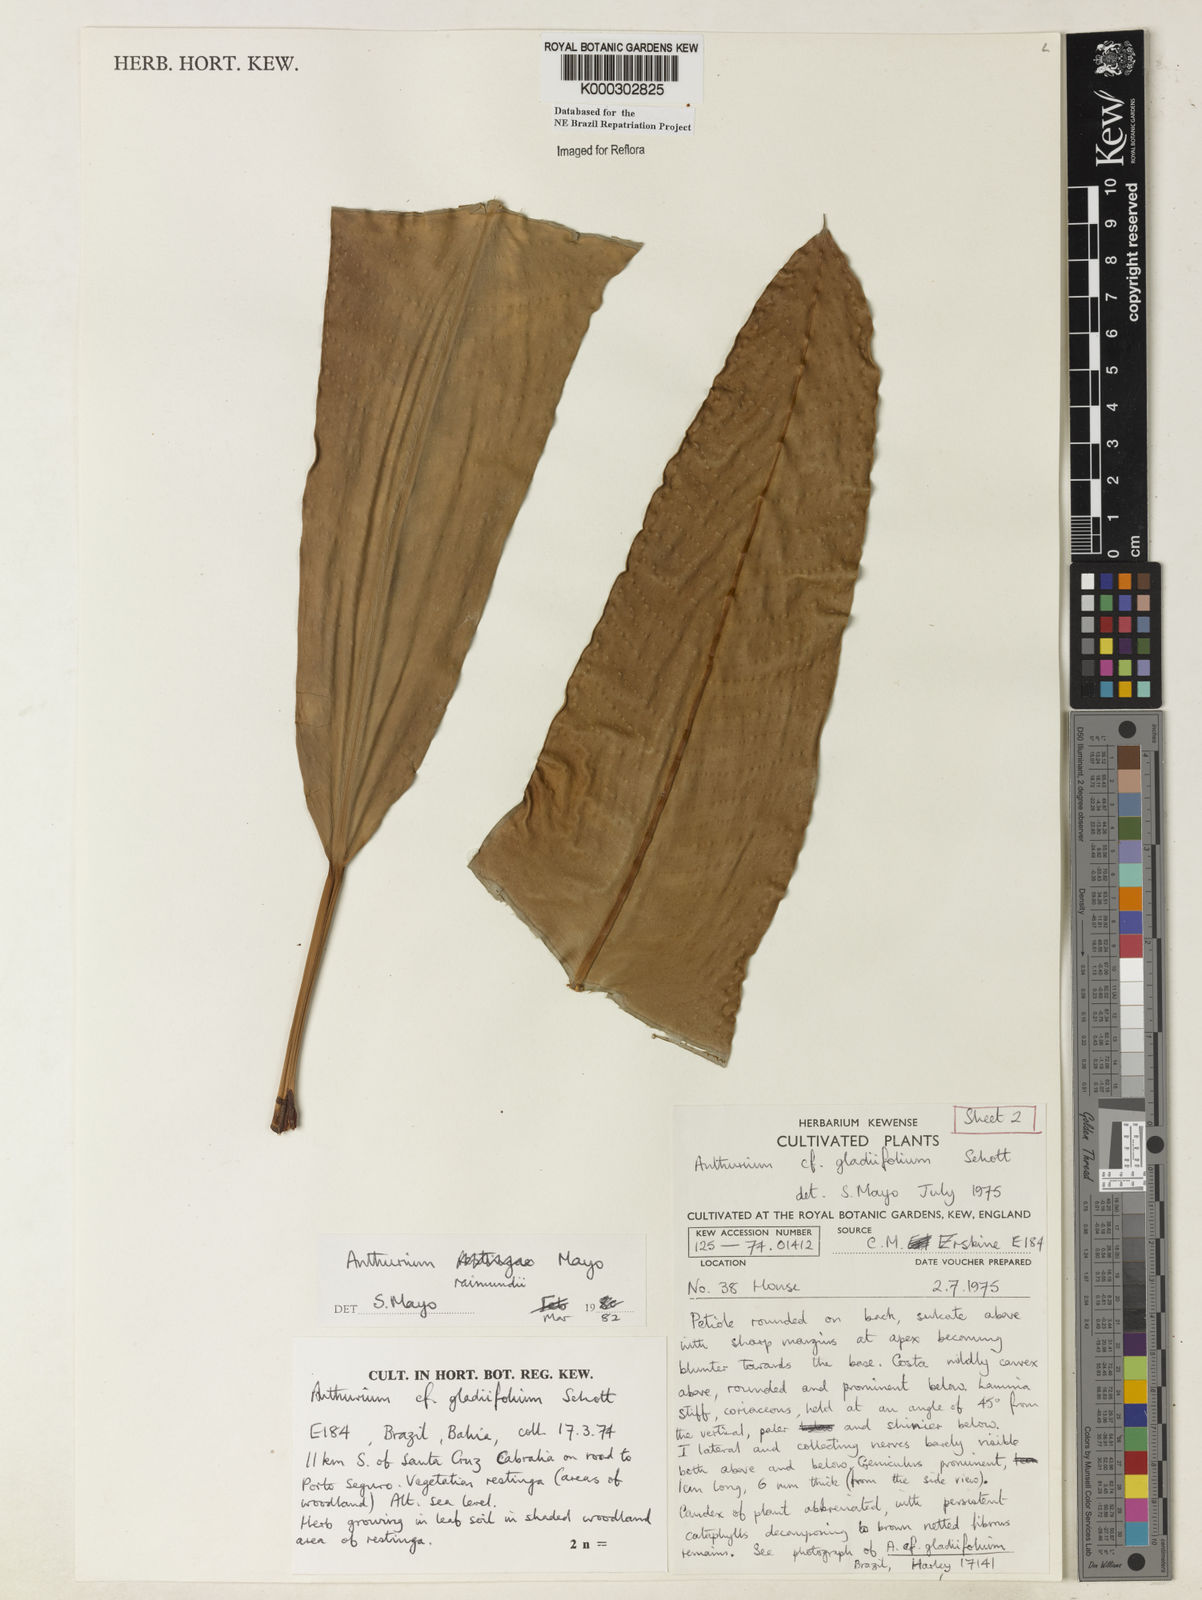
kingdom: Plantae
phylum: Tracheophyta
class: Liliopsida
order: Alismatales
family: Araceae
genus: Anthurium
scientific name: Anthurium raimundii
